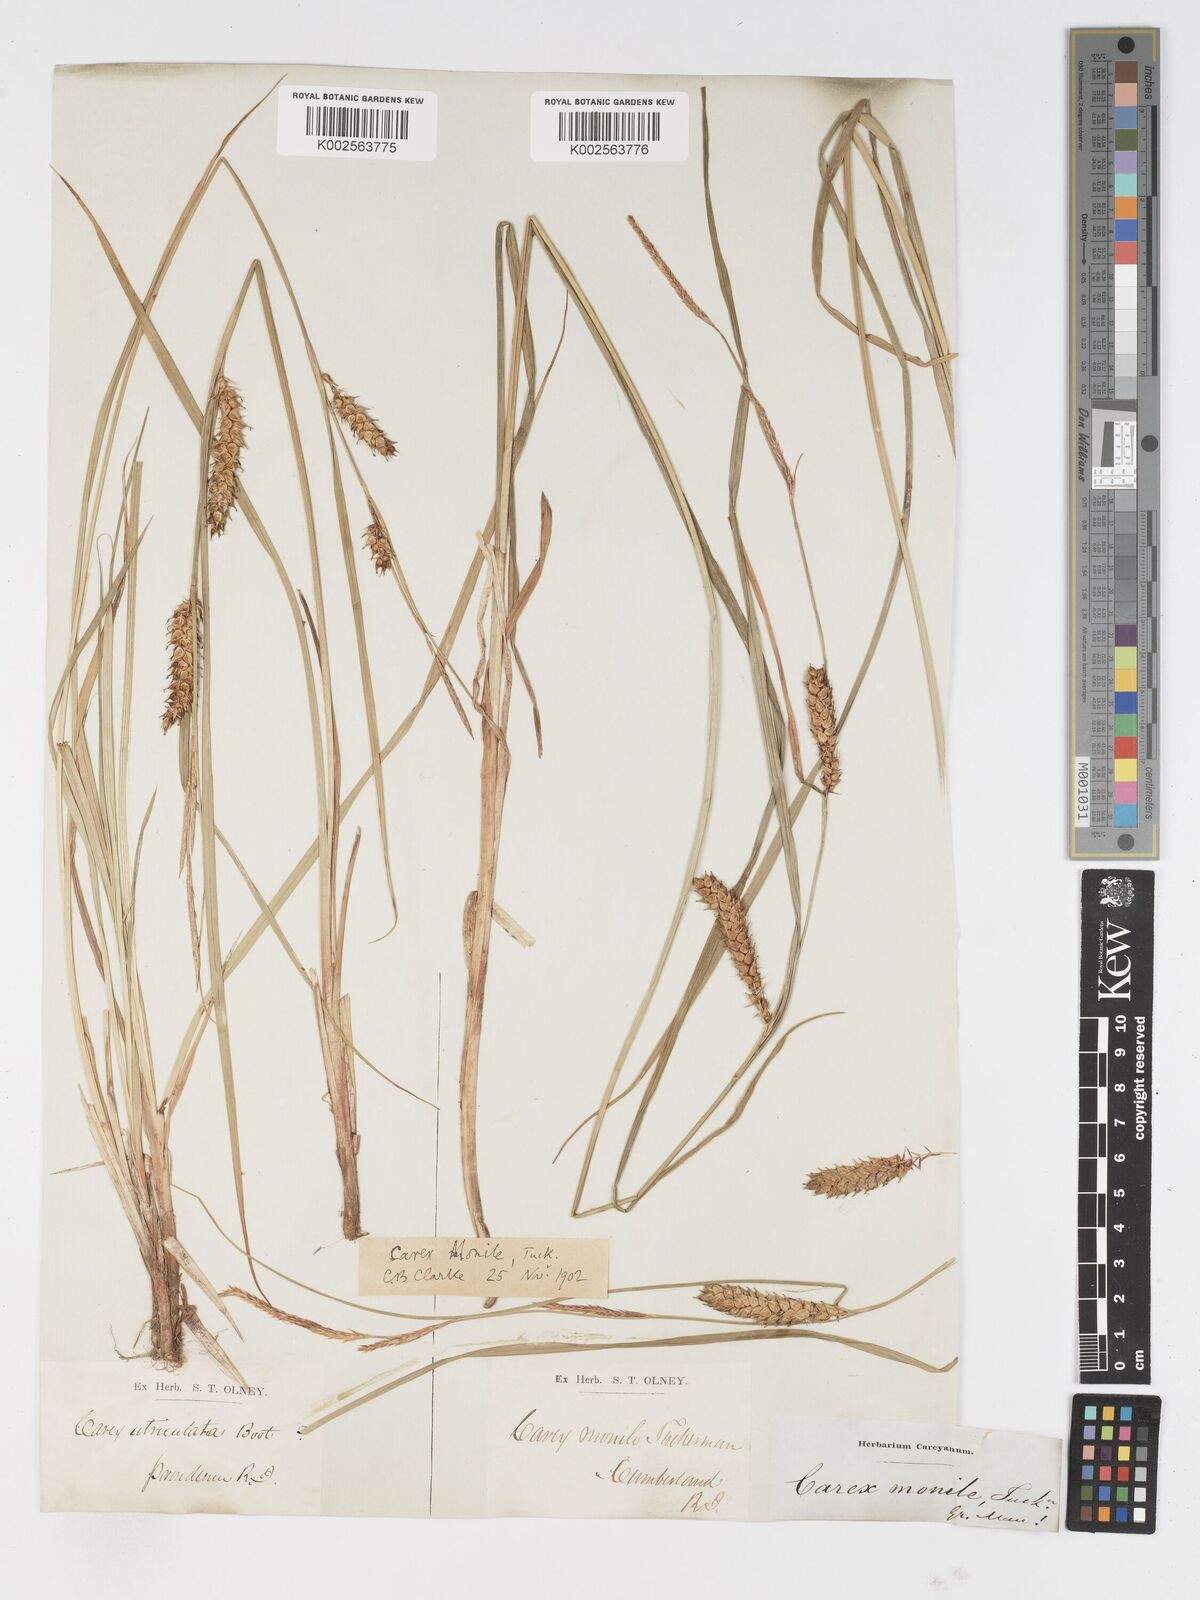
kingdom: Plantae
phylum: Tracheophyta
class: Liliopsida
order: Poales
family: Cyperaceae
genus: Carex
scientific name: Carex vesicaria
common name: Bladder-sedge
